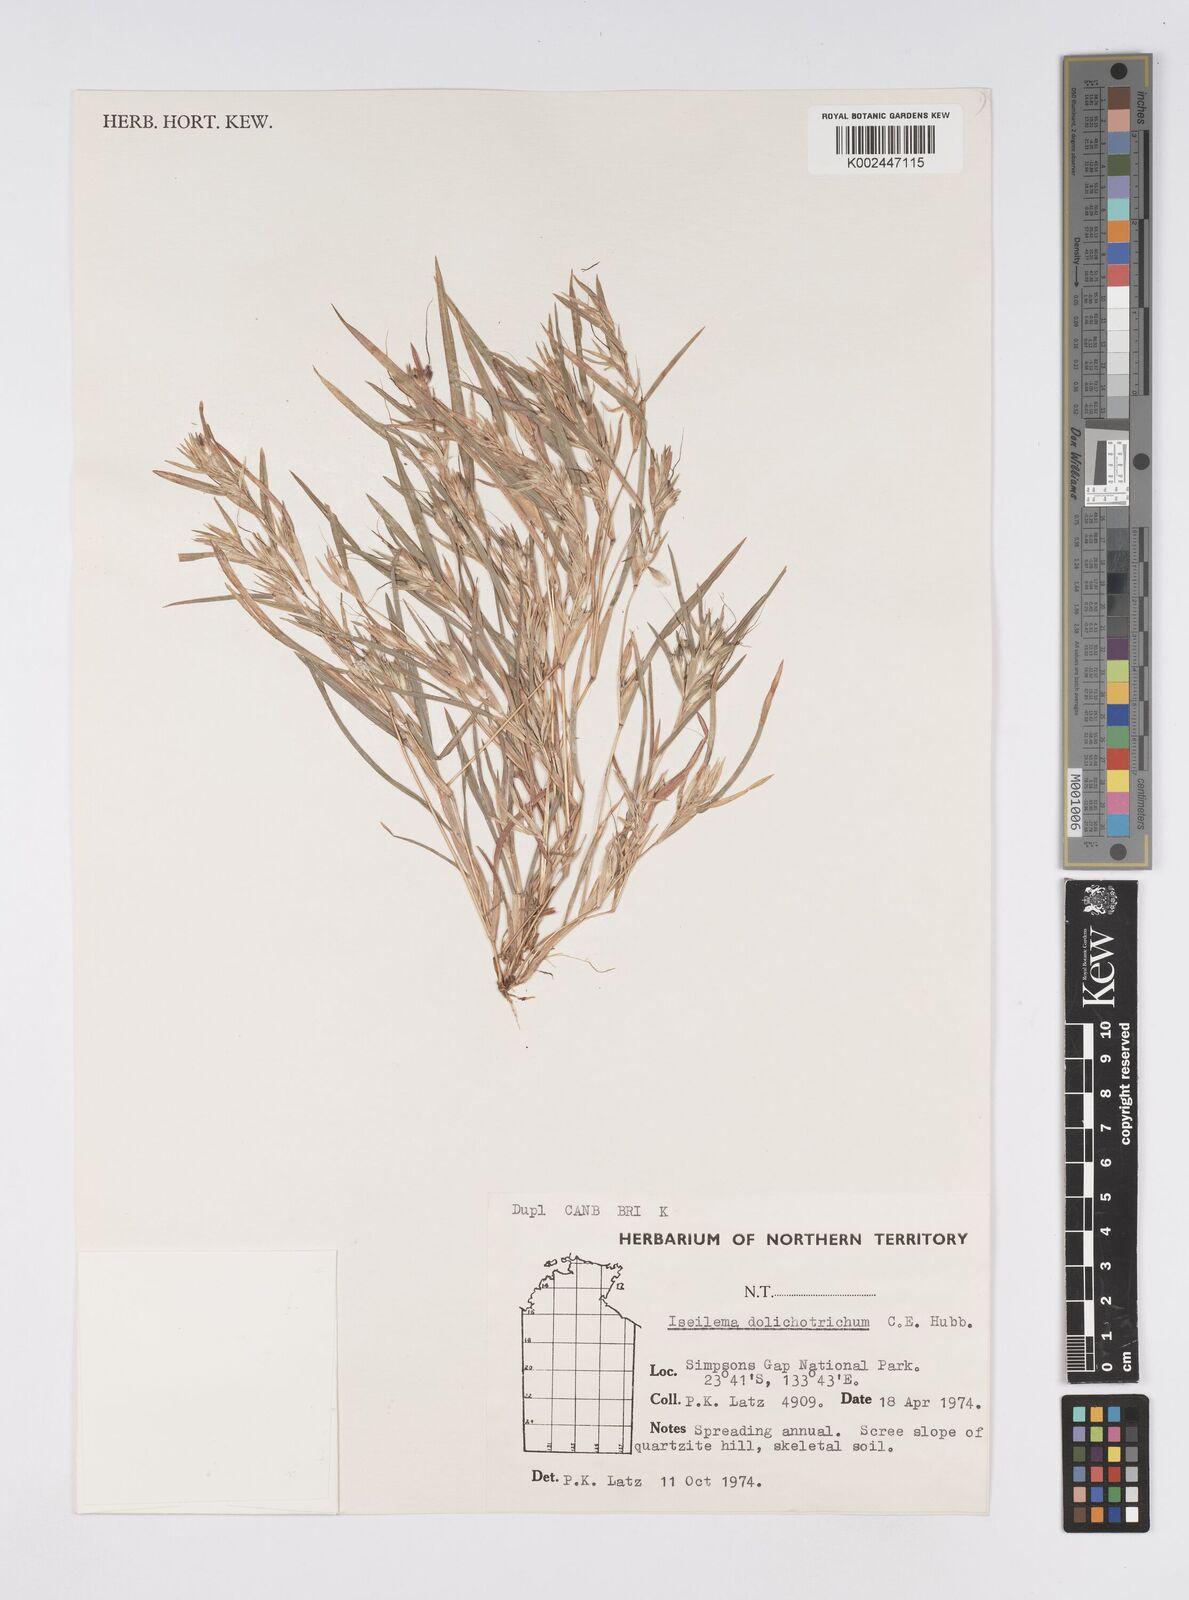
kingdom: Plantae
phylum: Tracheophyta
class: Liliopsida
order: Poales
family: Poaceae
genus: Iseilema
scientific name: Iseilema dolichotrichum
